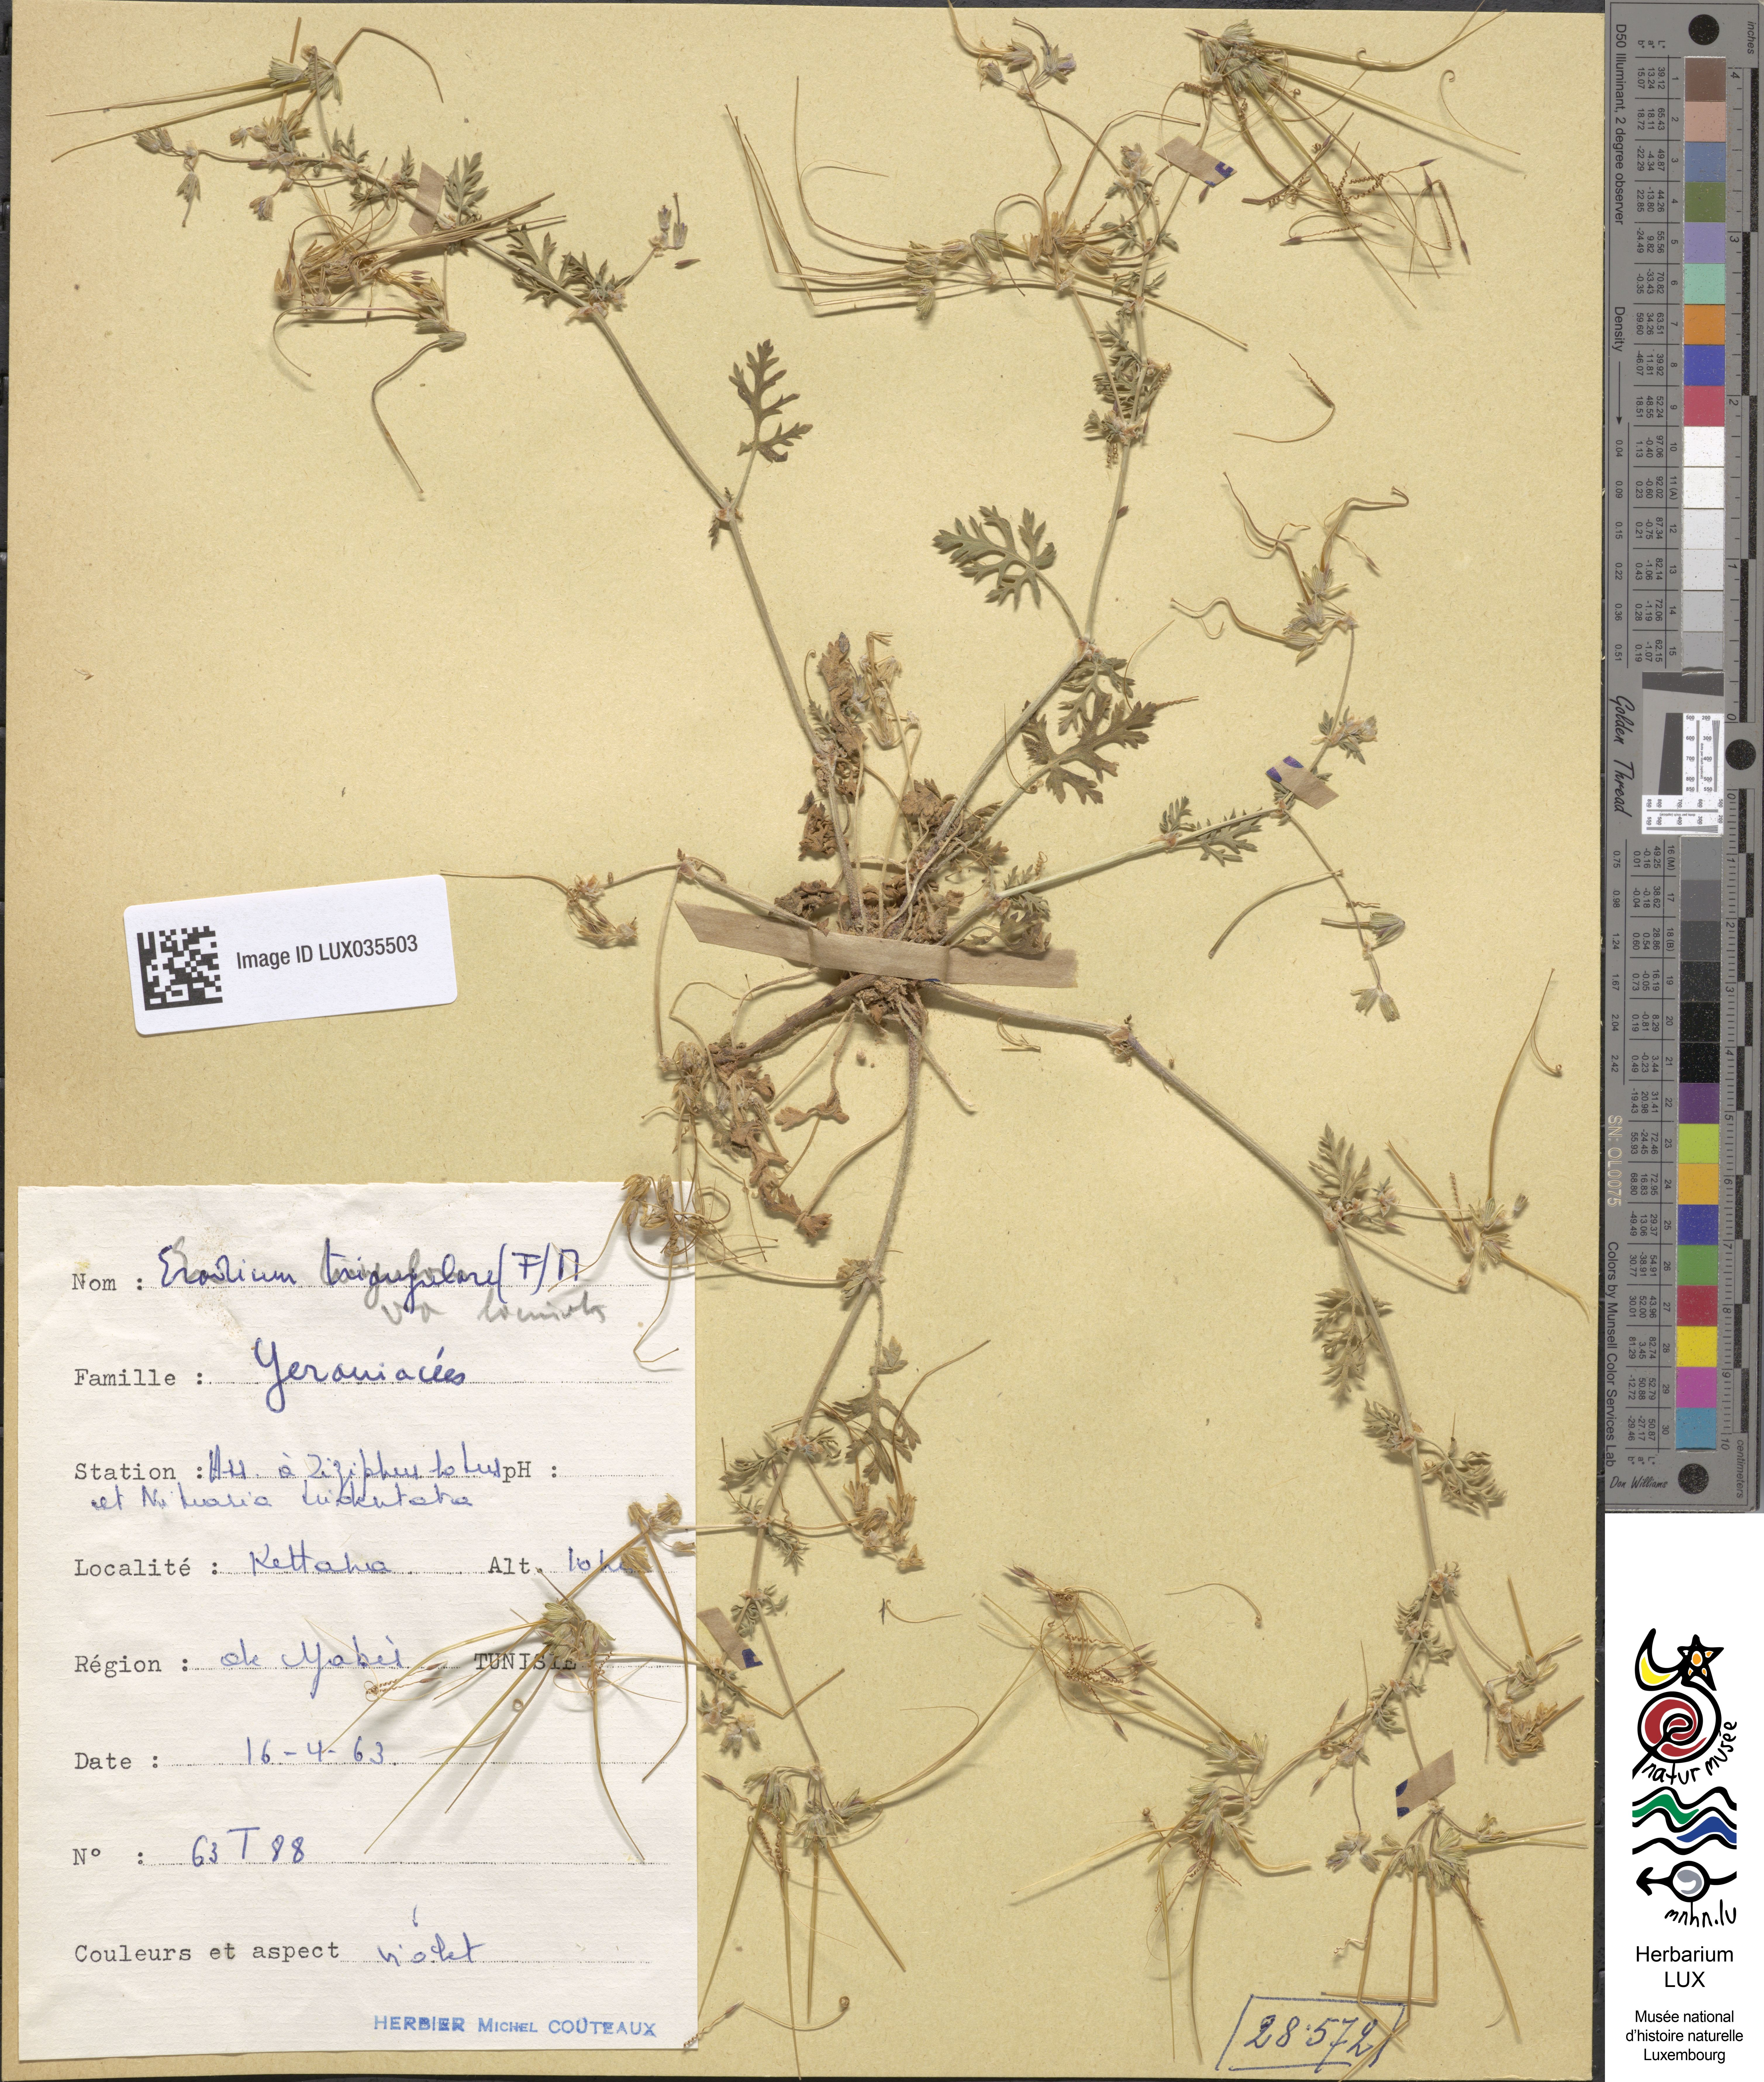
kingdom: Plantae
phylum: Tracheophyta
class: Magnoliopsida
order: Geraniales
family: Geraniaceae
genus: Erodium
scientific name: Erodium laciniatum
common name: Cutleaf stork's bill
